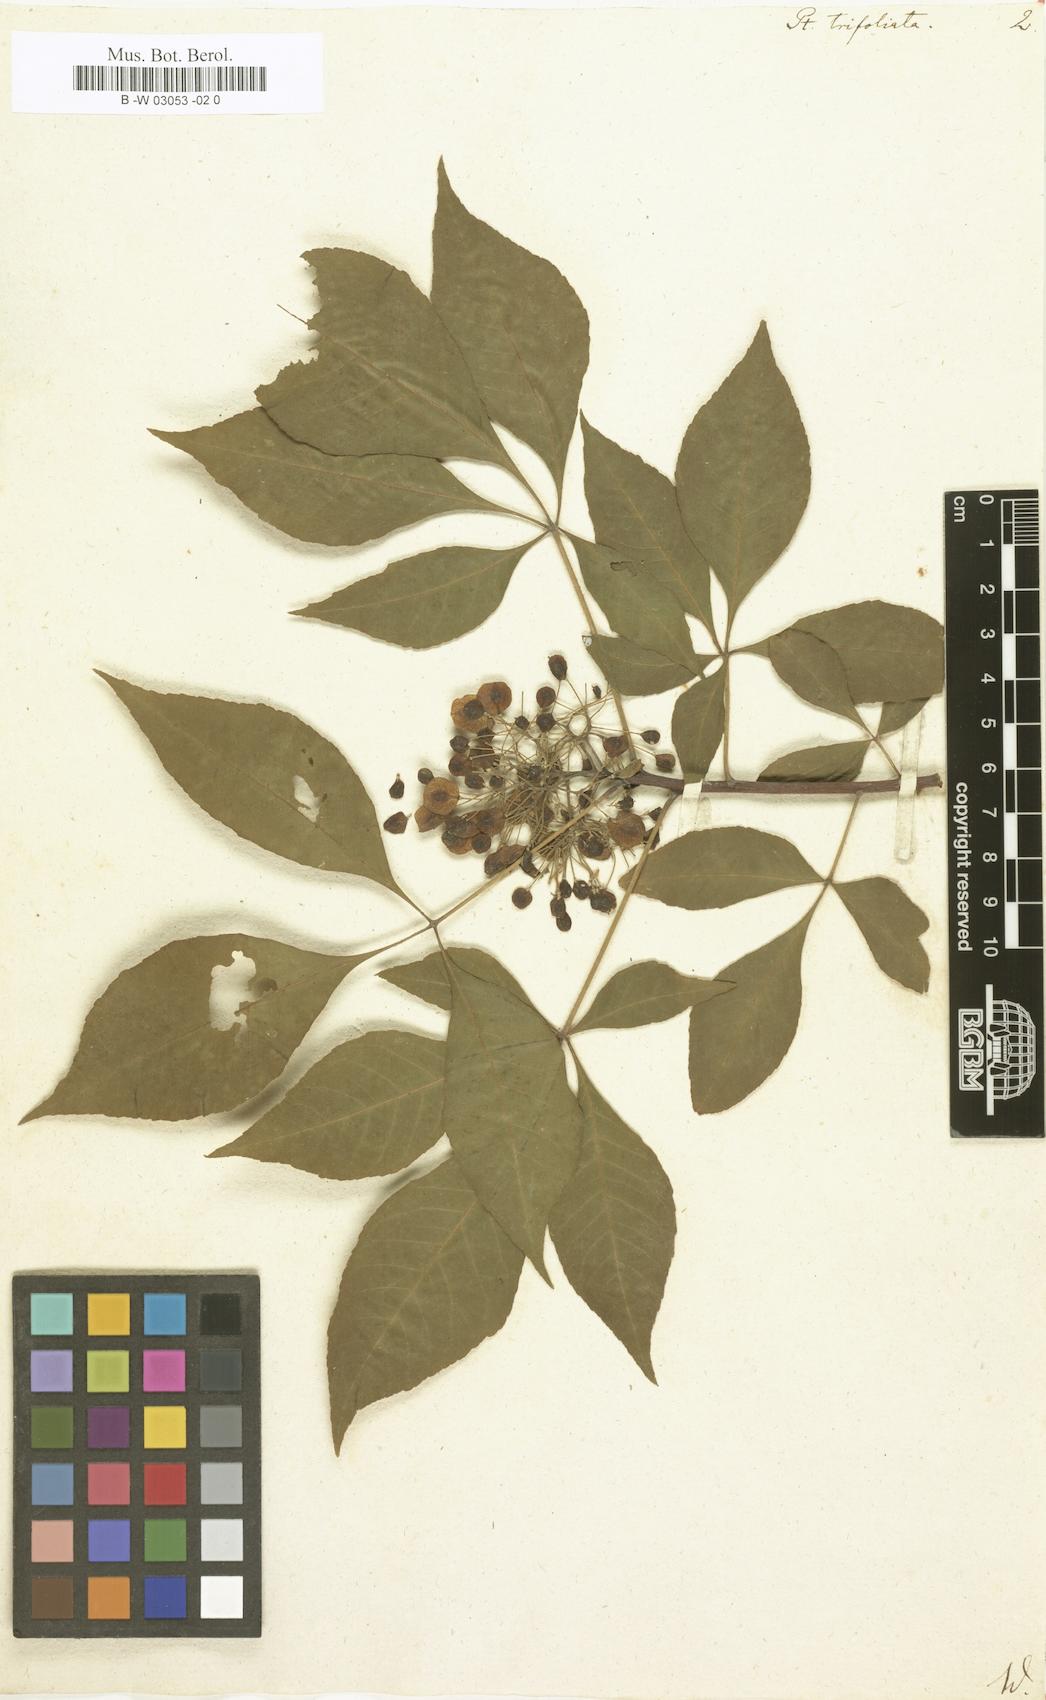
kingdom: Plantae
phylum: Tracheophyta
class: Magnoliopsida
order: Sapindales
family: Rutaceae
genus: Ptelea
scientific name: Ptelea trifoliata
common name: Common hop-tree
